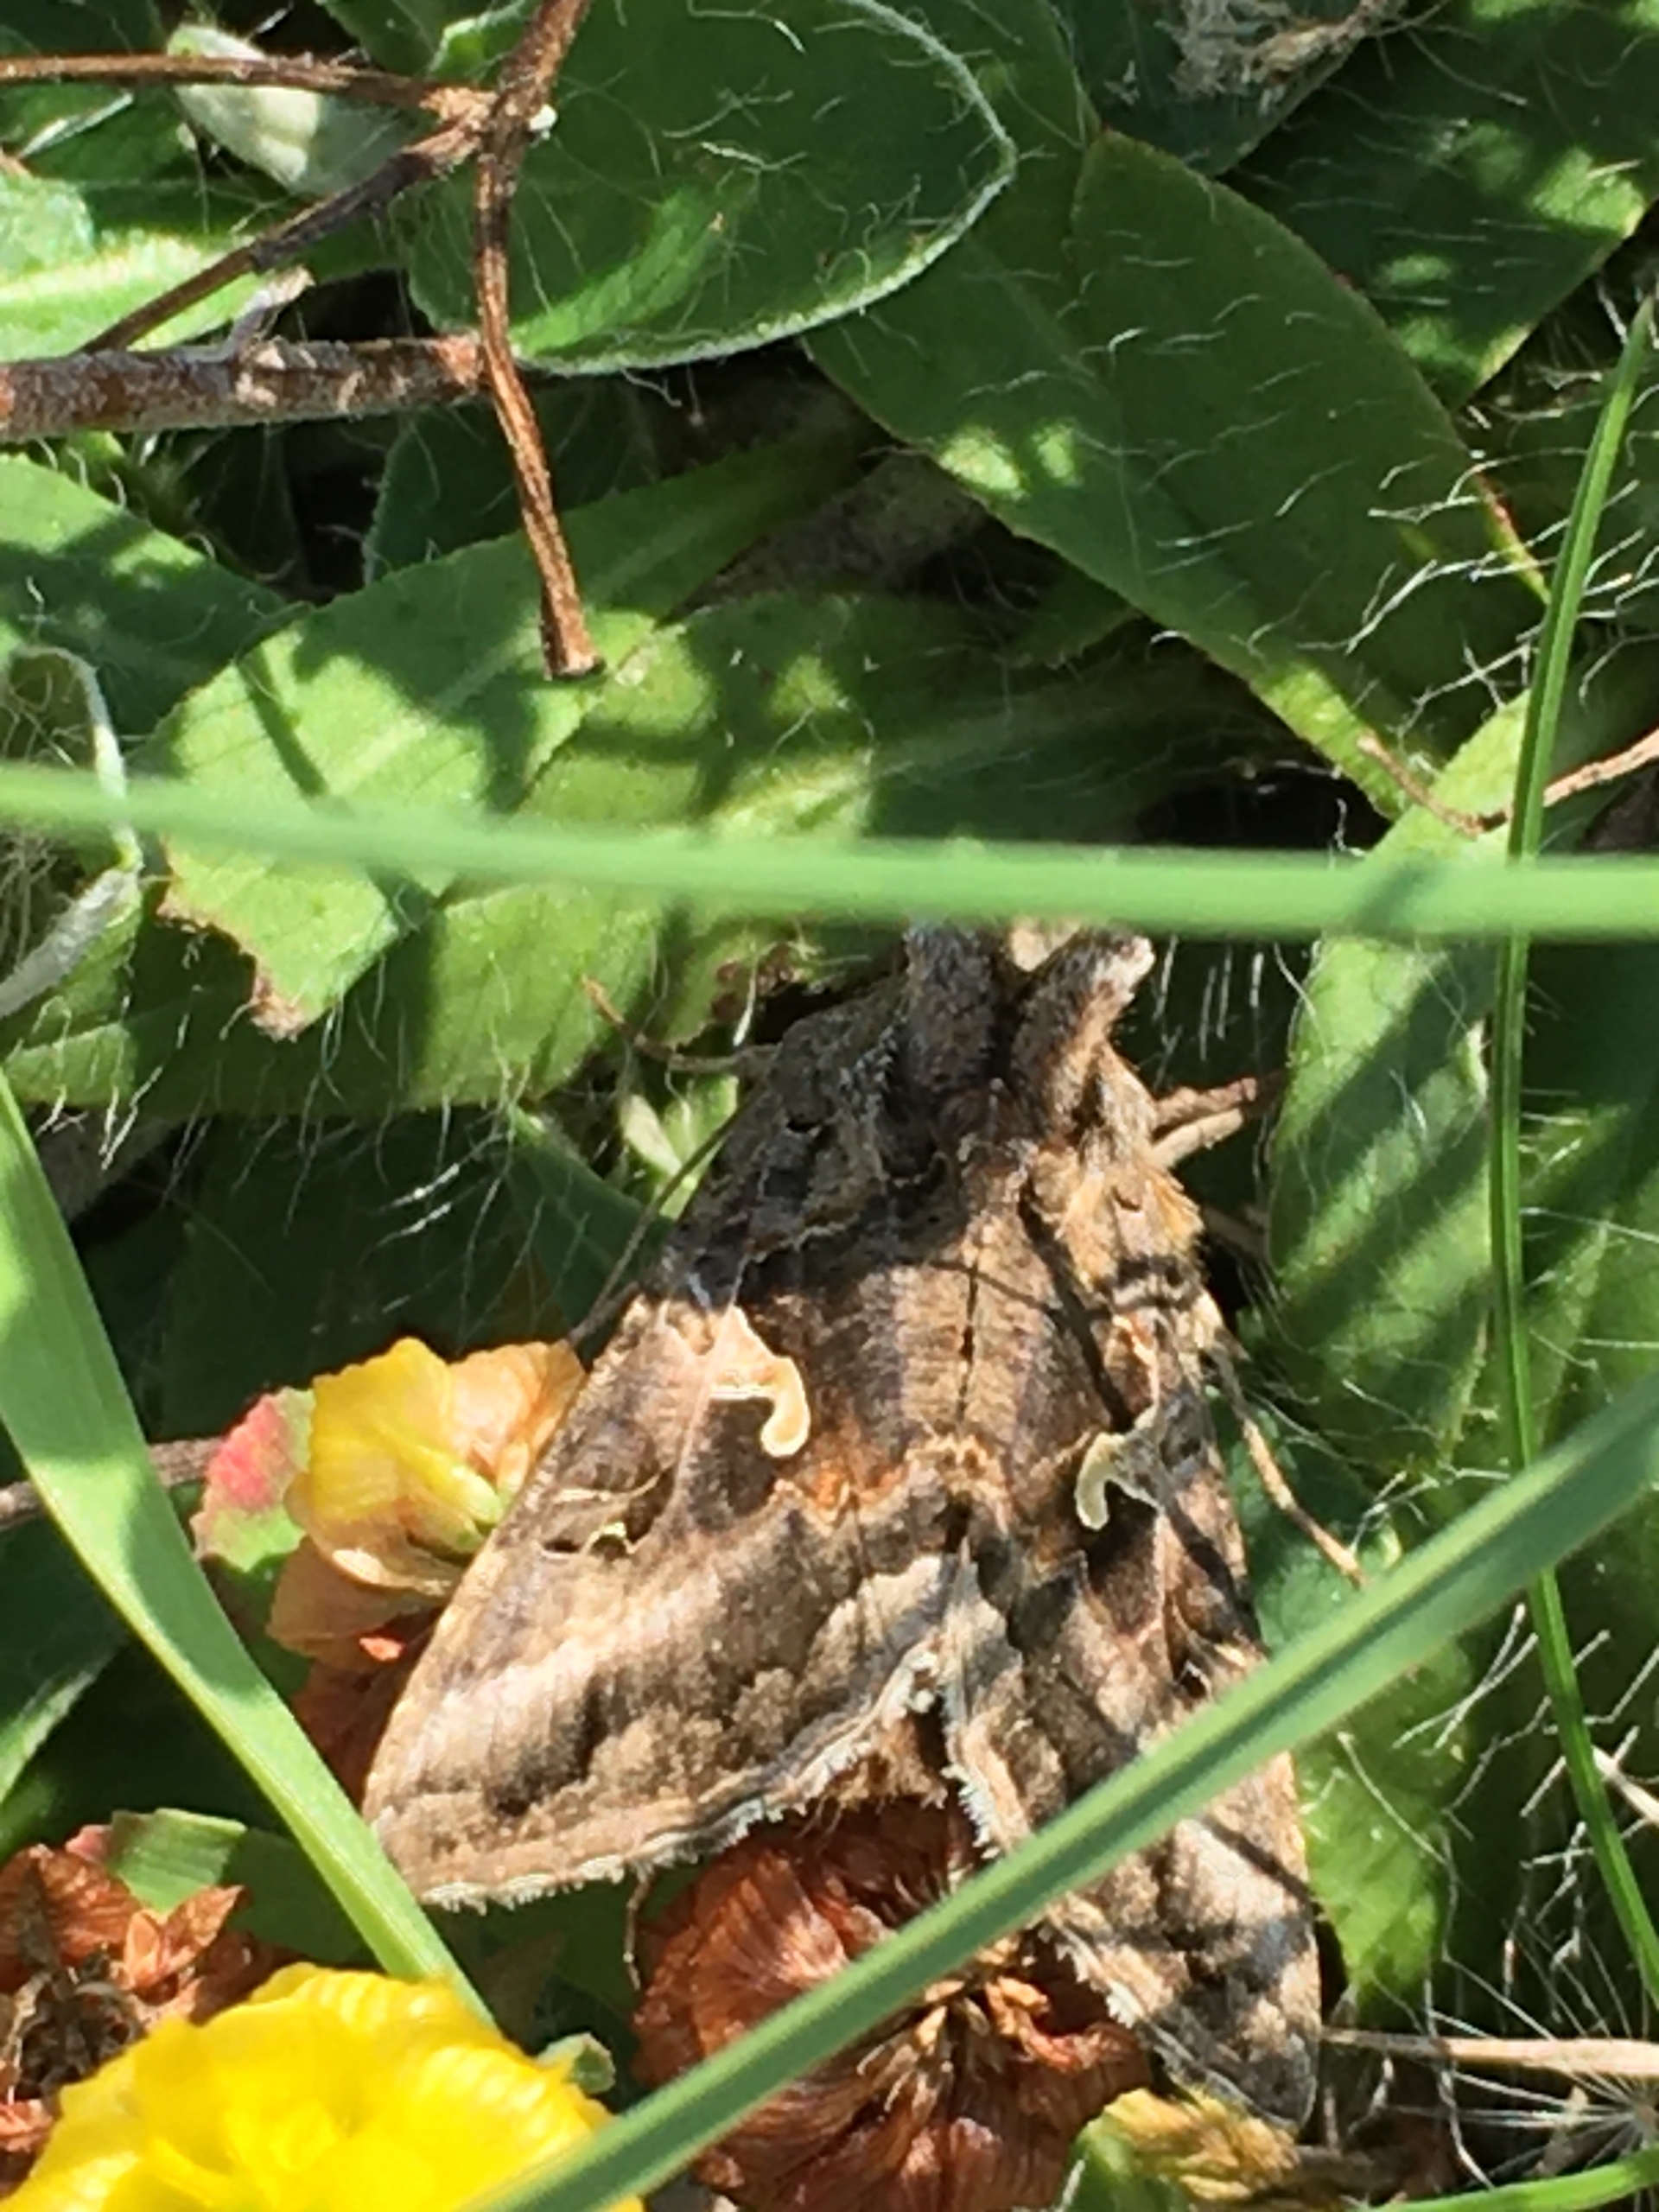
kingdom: Animalia
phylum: Arthropoda
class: Insecta
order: Lepidoptera
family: Noctuidae
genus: Autographa
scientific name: Autographa gamma
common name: Gammaugle
